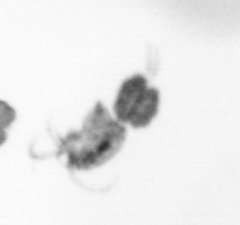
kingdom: Animalia
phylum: Arthropoda
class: Copepoda
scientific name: Copepoda
